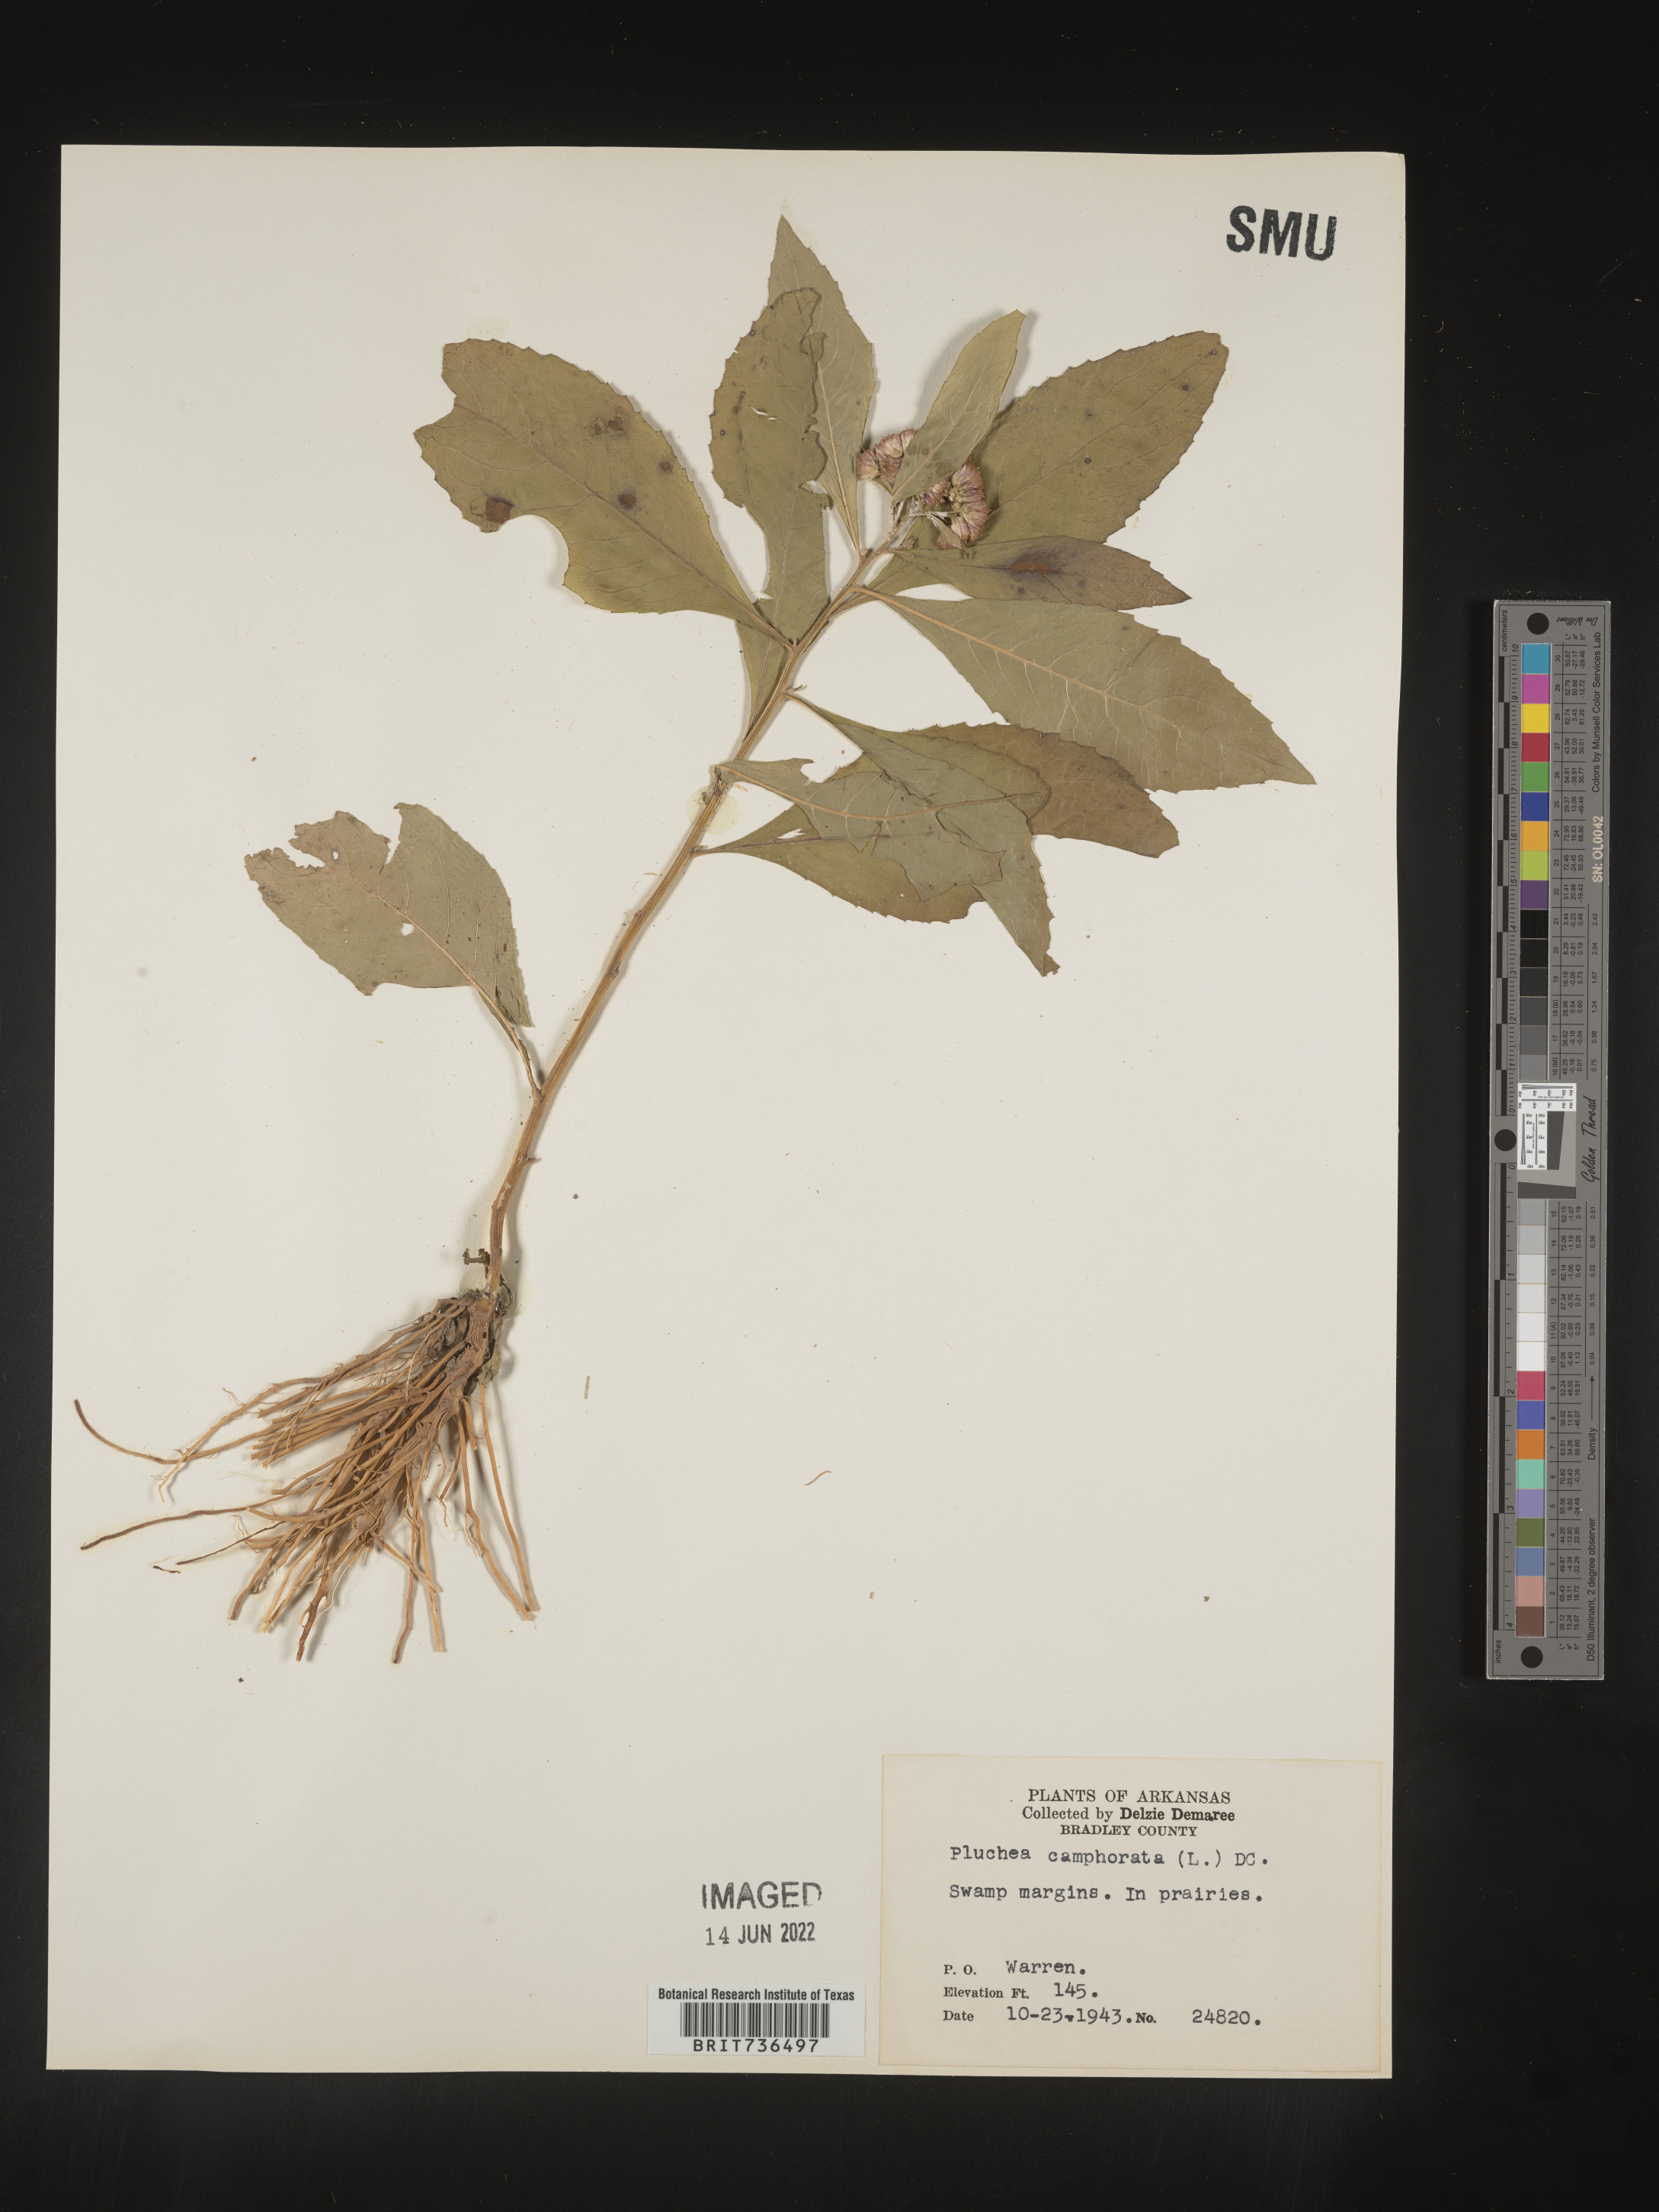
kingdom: Plantae
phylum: Tracheophyta
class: Magnoliopsida
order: Asterales
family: Asteraceae
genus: Pluchea
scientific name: Pluchea camphorata
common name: Camphor pluchea
